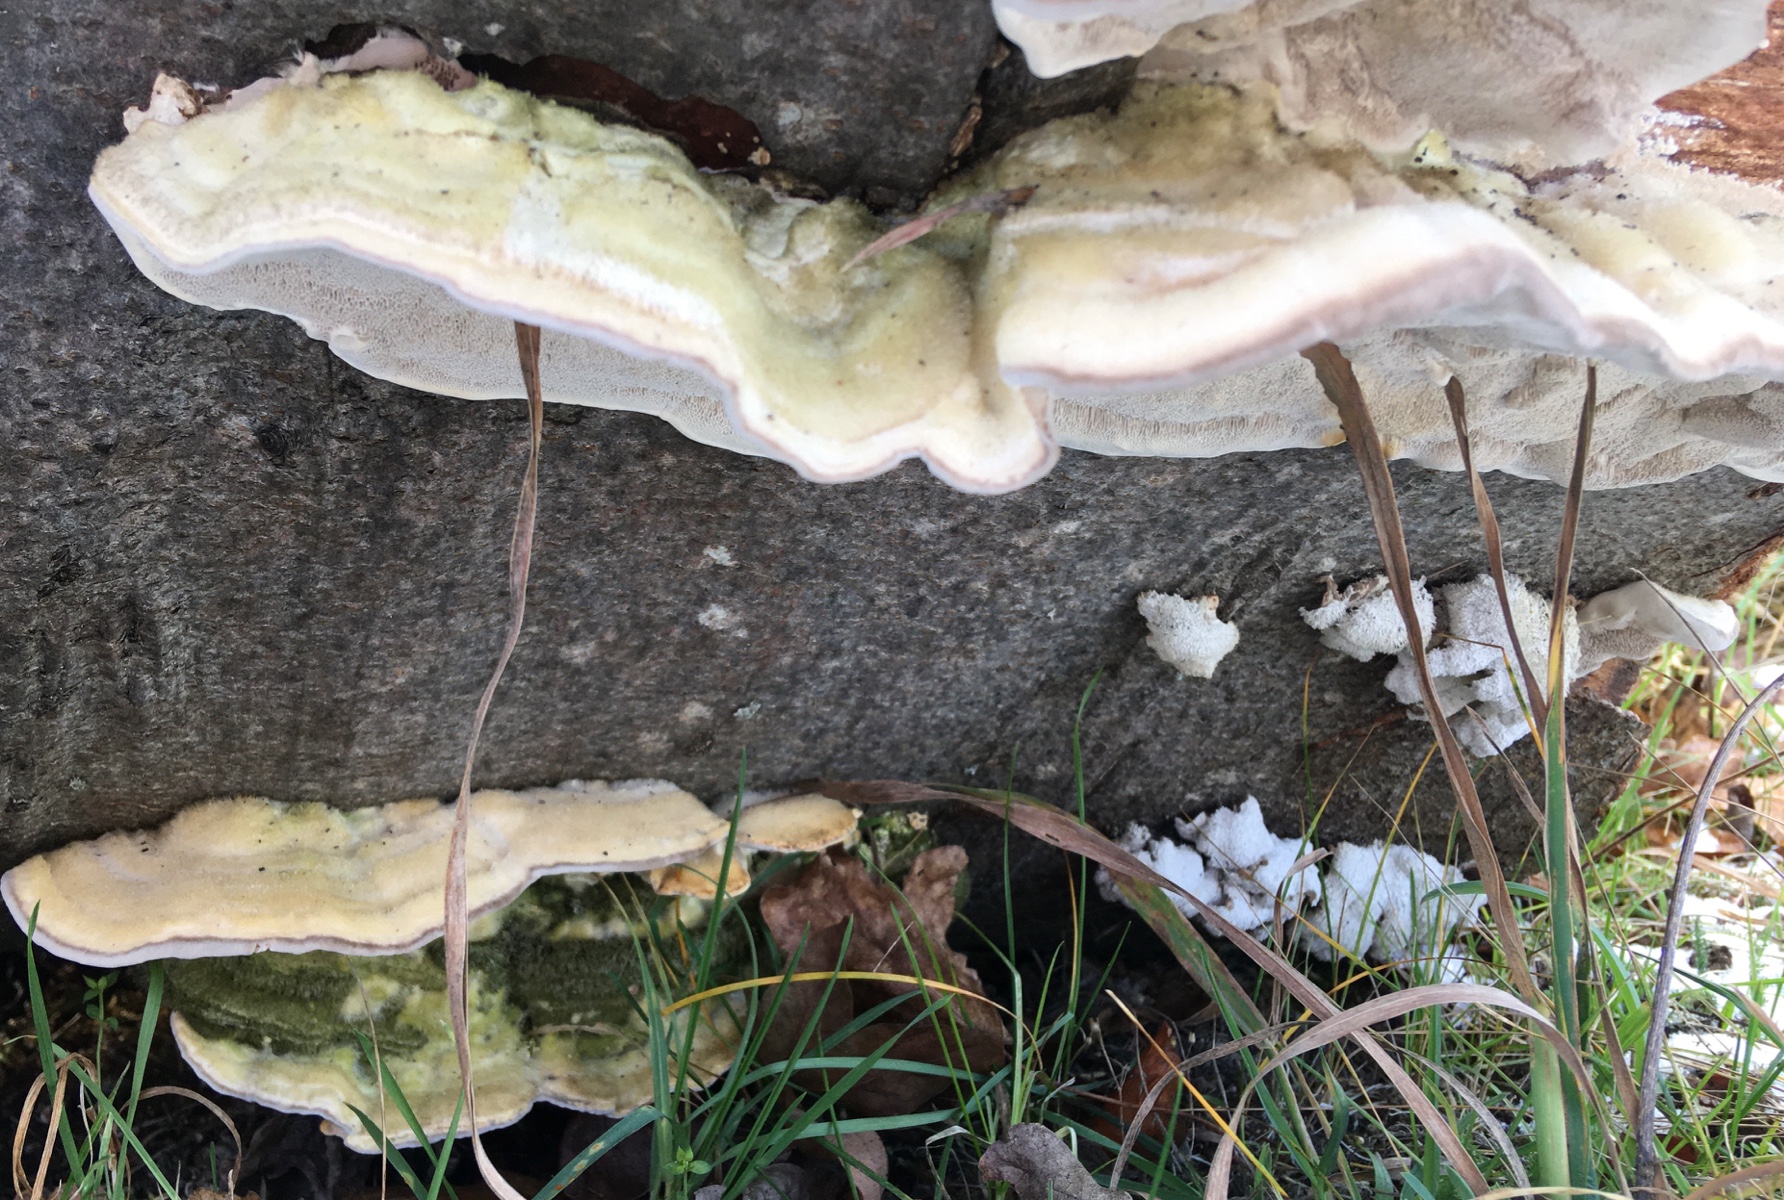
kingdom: Fungi
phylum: Basidiomycota
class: Agaricomycetes
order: Polyporales
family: Polyporaceae
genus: Trametes
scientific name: Trametes hirsuta
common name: håret læderporesvamp
